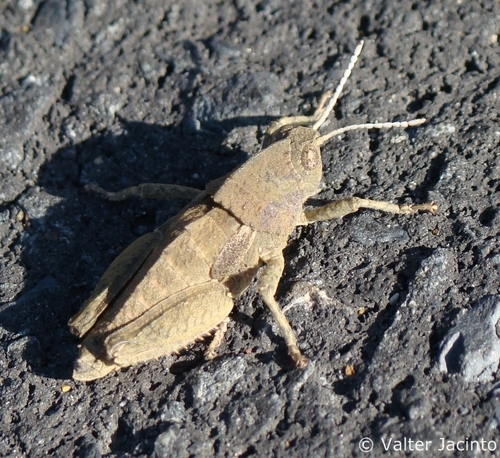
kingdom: Animalia
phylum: Arthropoda
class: Insecta
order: Orthoptera
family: Pamphagidae
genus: Ocnerodes
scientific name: Ocnerodes fallaciosus
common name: Misleading stone grasshopper
